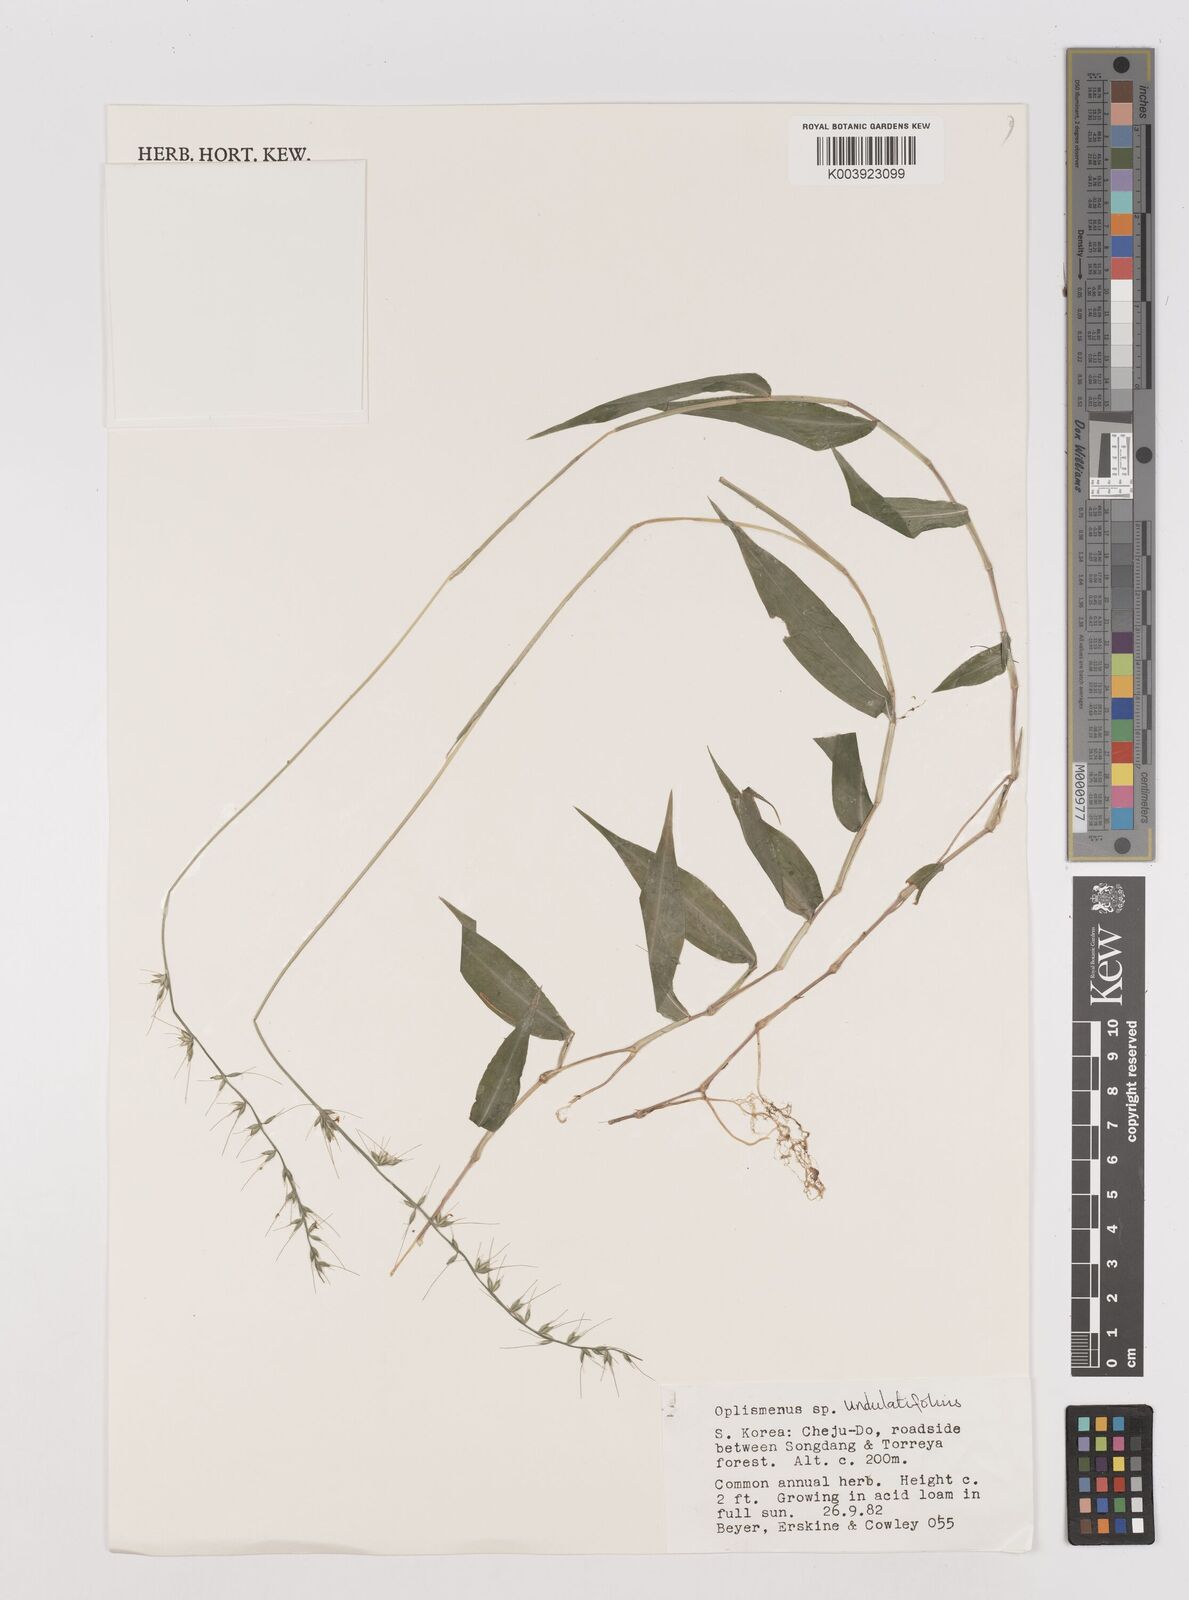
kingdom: Plantae
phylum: Tracheophyta
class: Liliopsida
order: Poales
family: Poaceae
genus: Oplismenus
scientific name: Oplismenus undulatifolius
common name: Wavyleaf basketgrass
